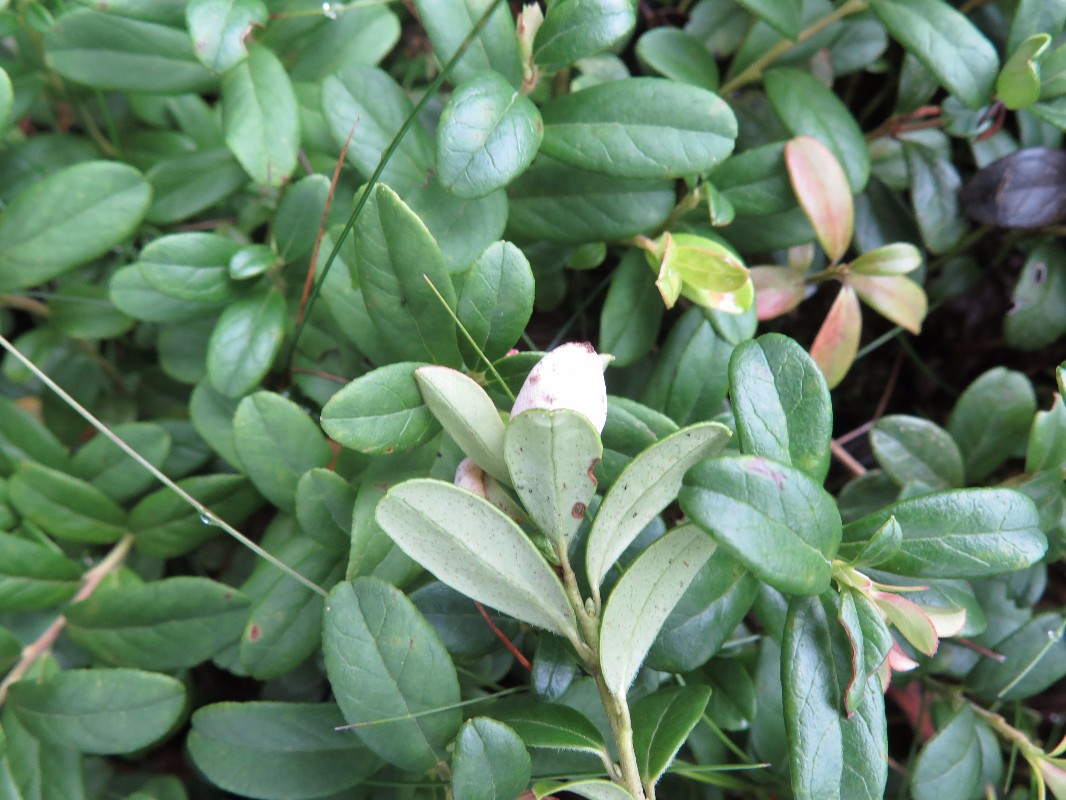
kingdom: Fungi
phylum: Basidiomycota
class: Exobasidiomycetes
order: Exobasidiales
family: Exobasidiaceae
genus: Exobasidium
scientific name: Exobasidium vaccinii
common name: tyttebærblad-bøllesvamp
